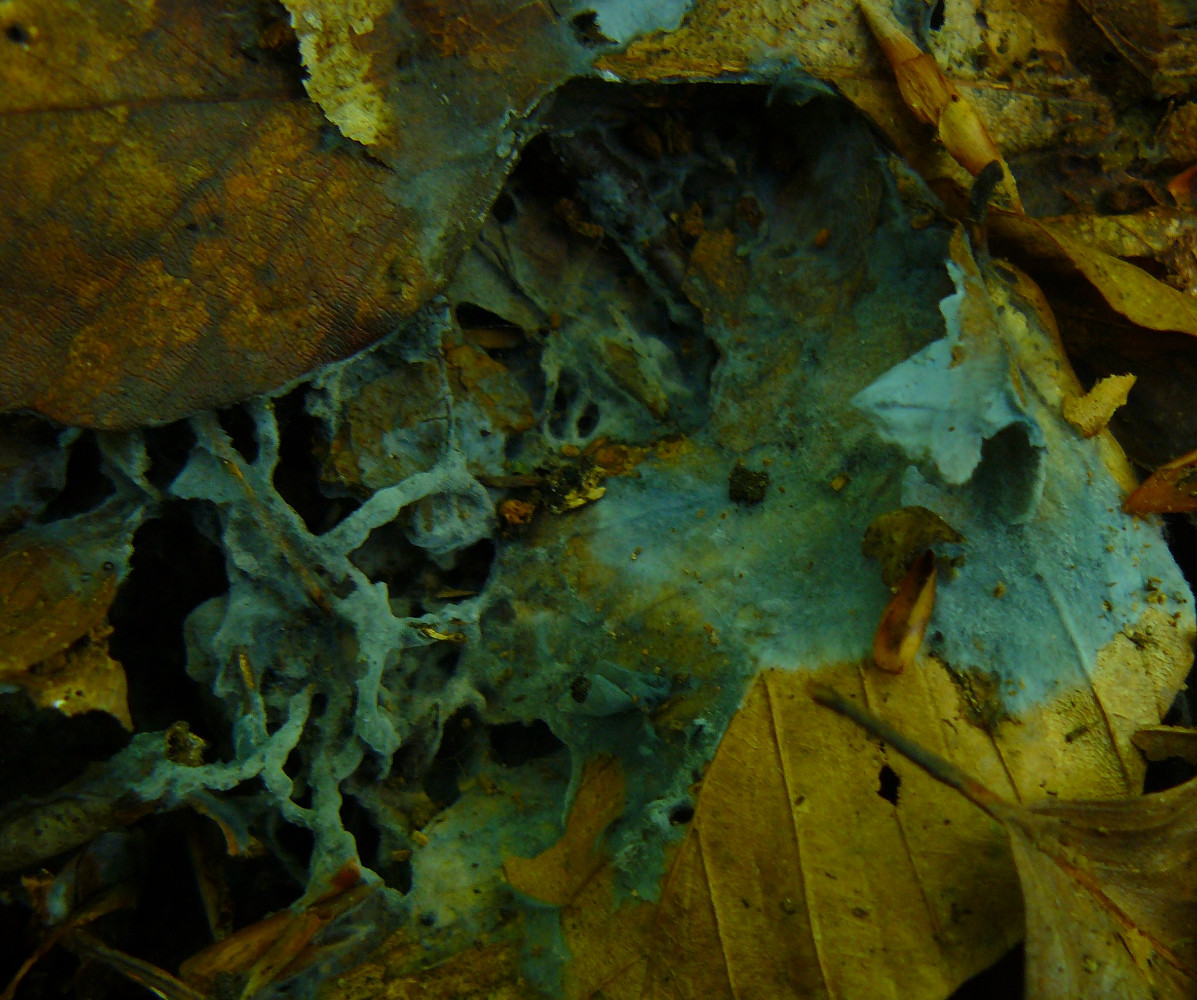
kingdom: Fungi
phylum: Basidiomycota
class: Agaricomycetes
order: Atheliales
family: Atheliaceae
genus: Byssocorticium
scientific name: Byssocorticium atrovirens
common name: blå førnehinde
